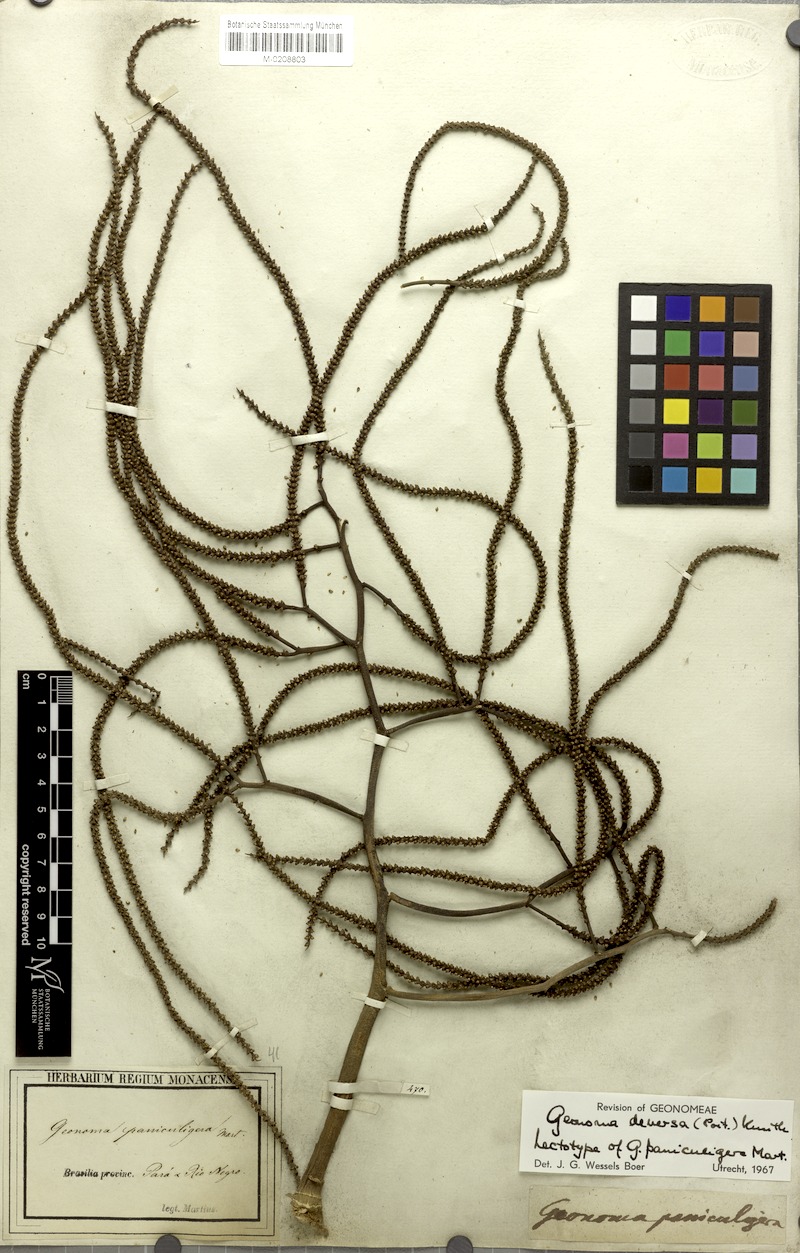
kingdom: Plantae
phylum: Tracheophyta
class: Liliopsida
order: Arecales
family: Arecaceae
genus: Geonoma
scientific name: Geonoma deversa
